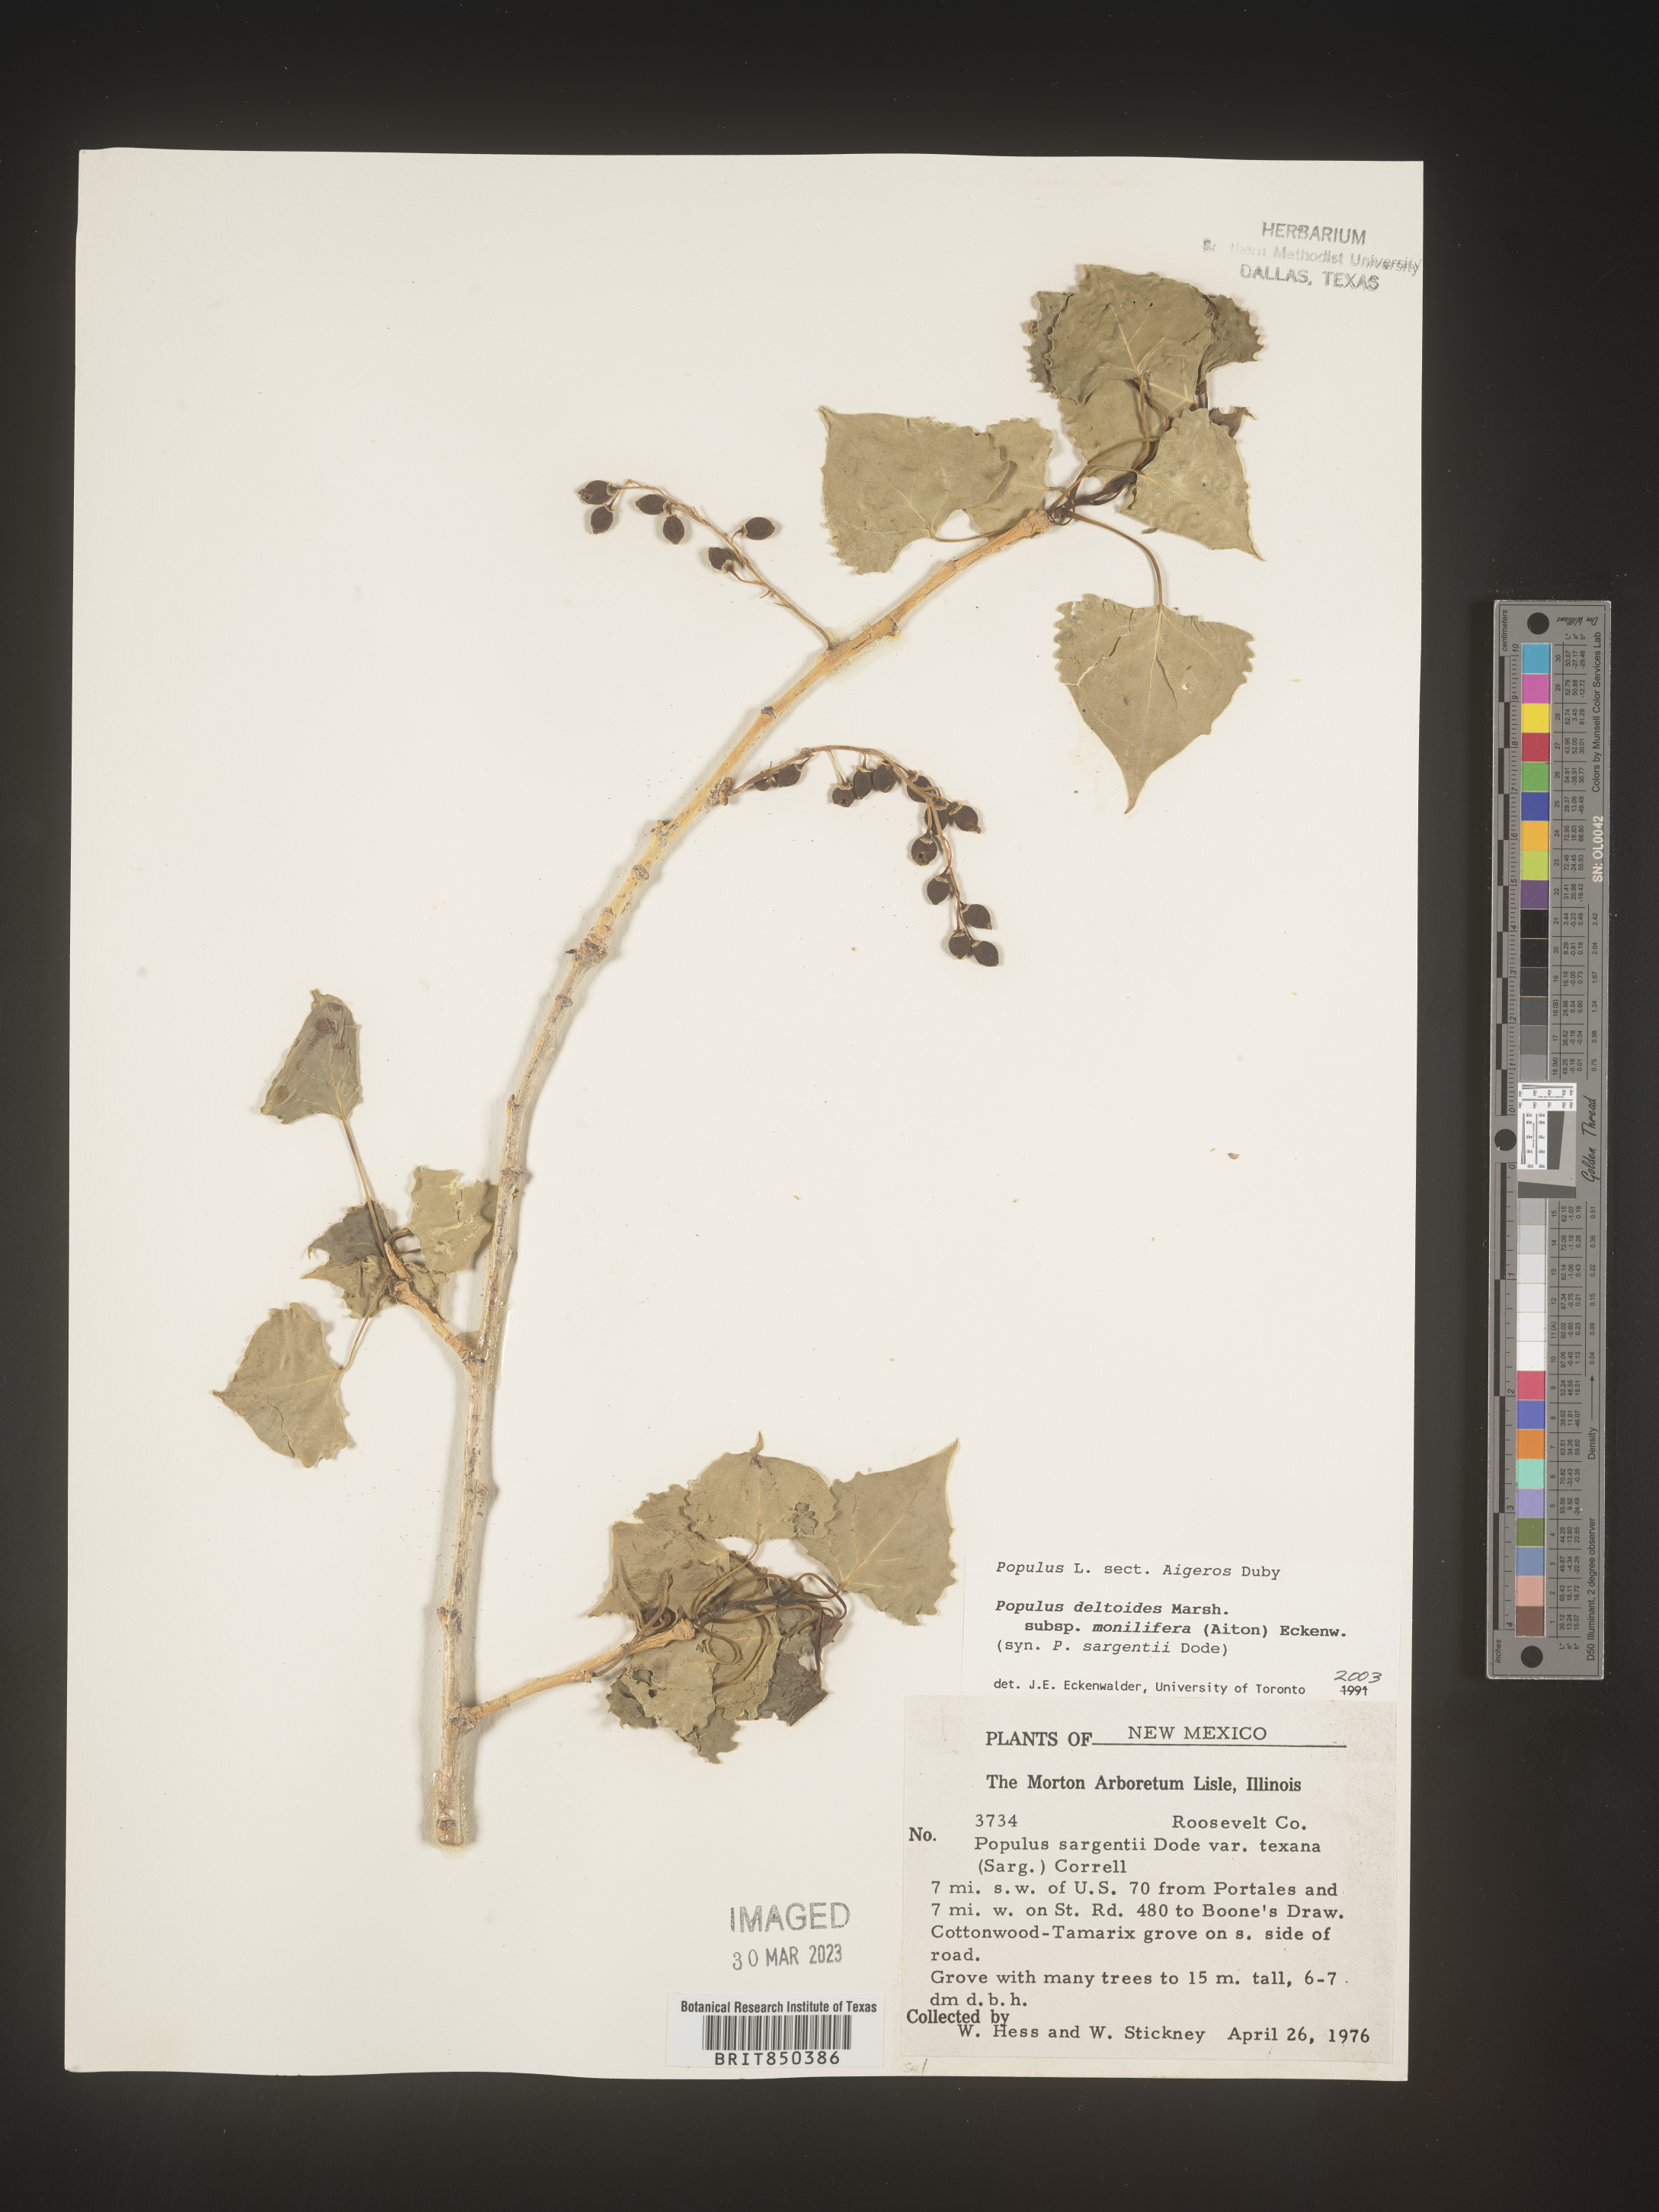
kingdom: Plantae
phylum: Tracheophyta
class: Magnoliopsida
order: Malpighiales
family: Salicaceae
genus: Populus
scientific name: Populus deltoides
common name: Eastern cottonwood
